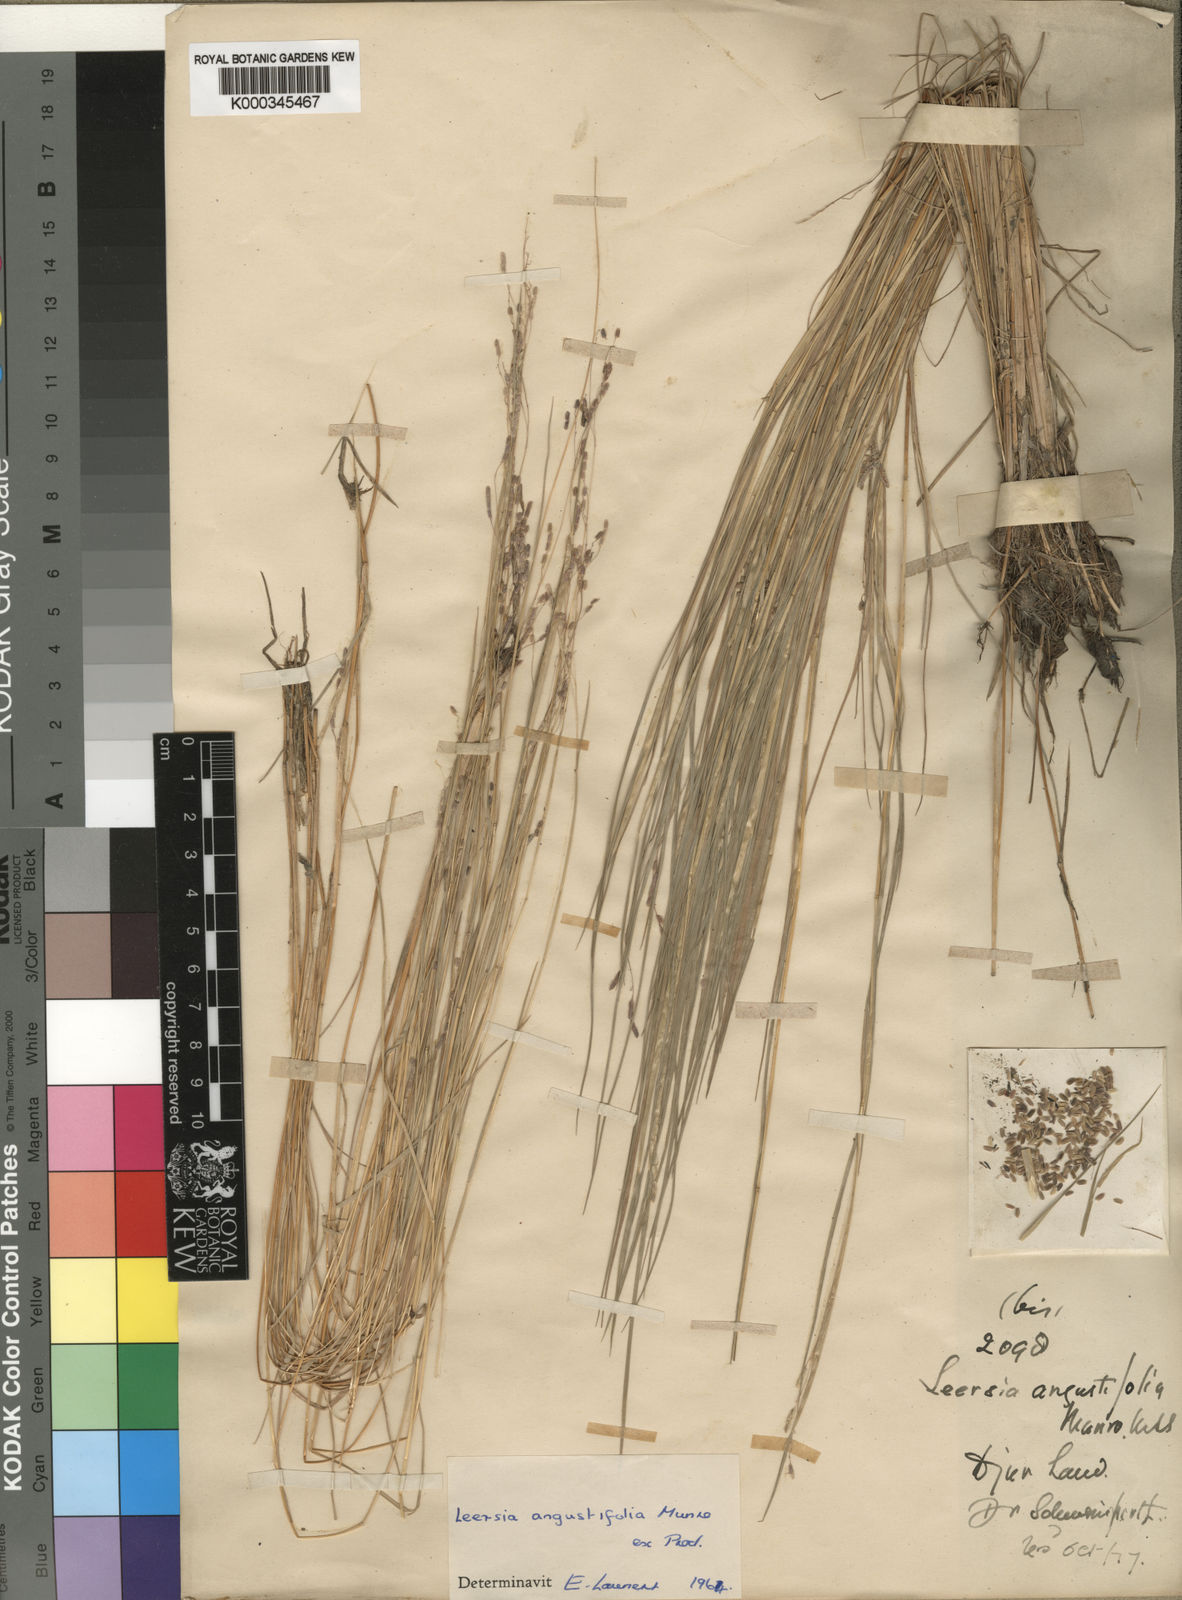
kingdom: Plantae
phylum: Tracheophyta
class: Liliopsida
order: Poales
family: Poaceae
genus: Leersia
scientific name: Leersia angustifolia
